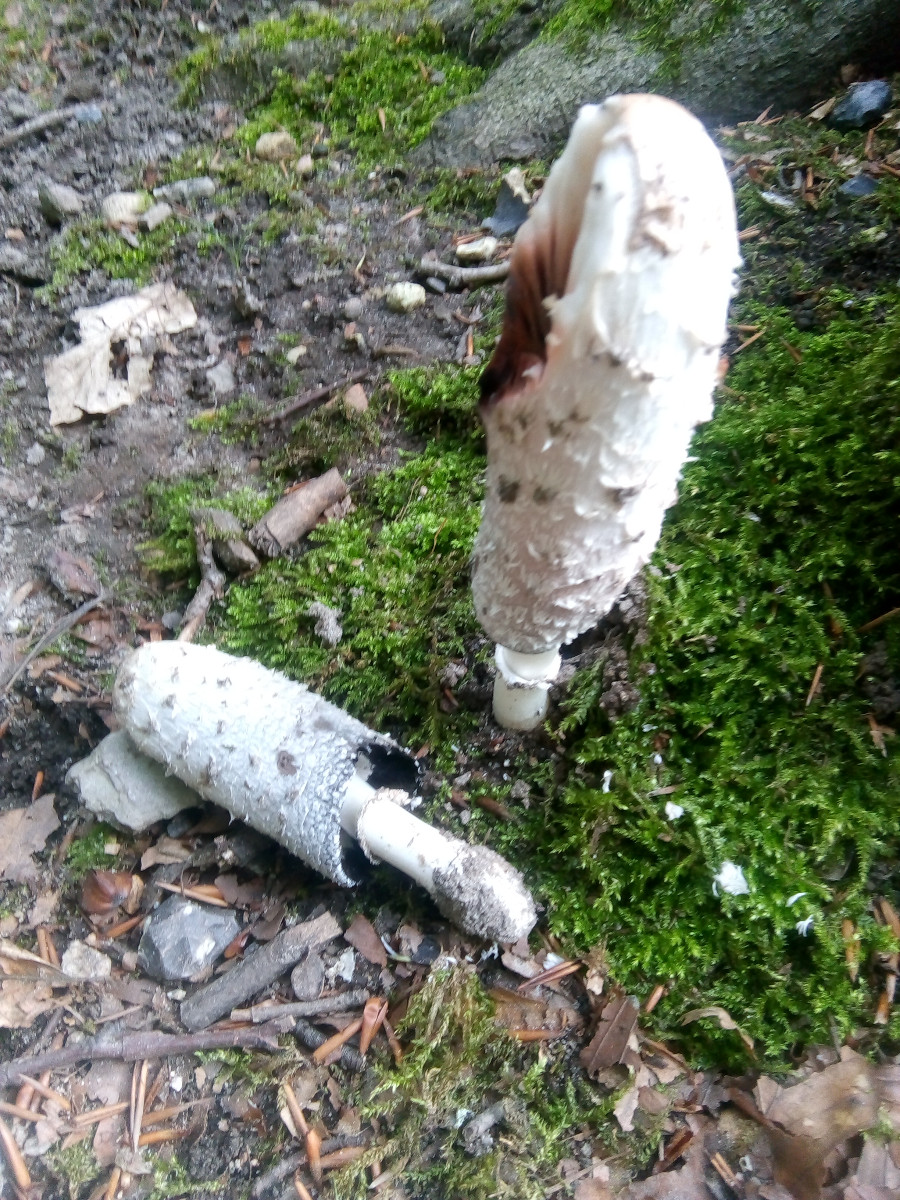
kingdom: Fungi
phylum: Basidiomycota
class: Agaricomycetes
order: Agaricales
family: Agaricaceae
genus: Coprinus
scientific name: Coprinus comatus
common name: stor parykhat
